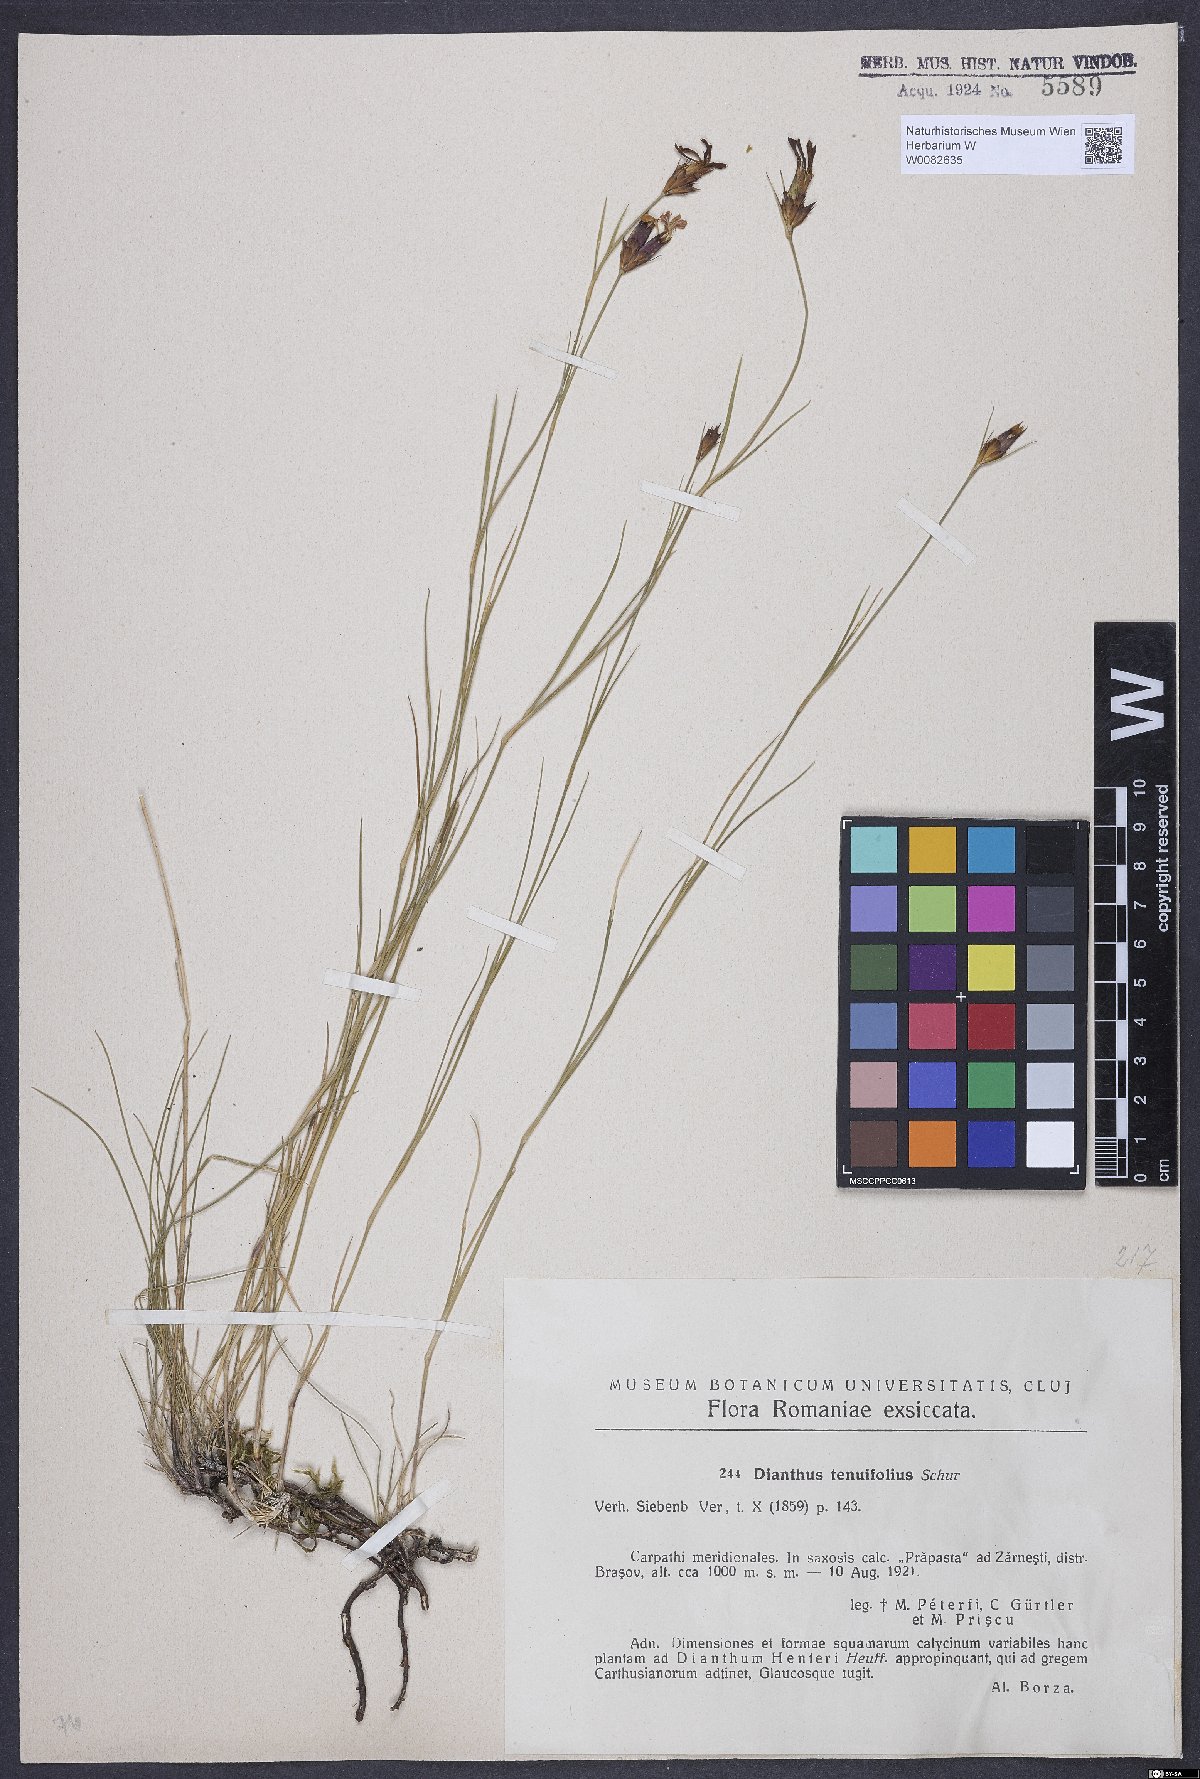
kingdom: Plantae
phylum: Tracheophyta
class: Magnoliopsida
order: Caryophyllales
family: Caryophyllaceae
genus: Dianthus
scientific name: Dianthus carthusianorum
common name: Carthusian pink
